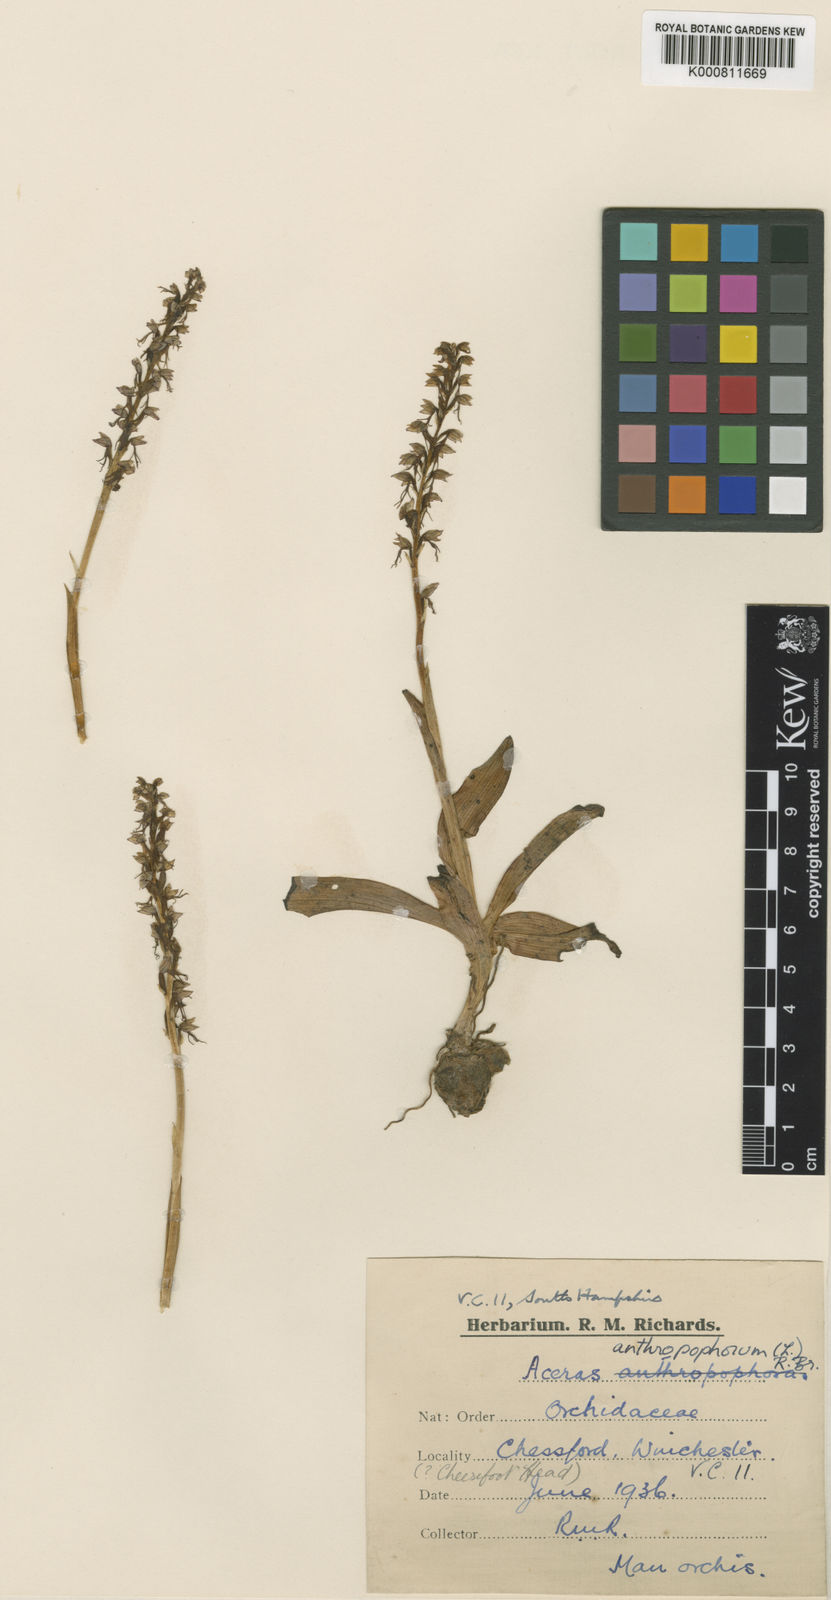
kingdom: Plantae
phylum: Tracheophyta
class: Liliopsida
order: Asparagales
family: Orchidaceae
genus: Orchis
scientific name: Orchis
